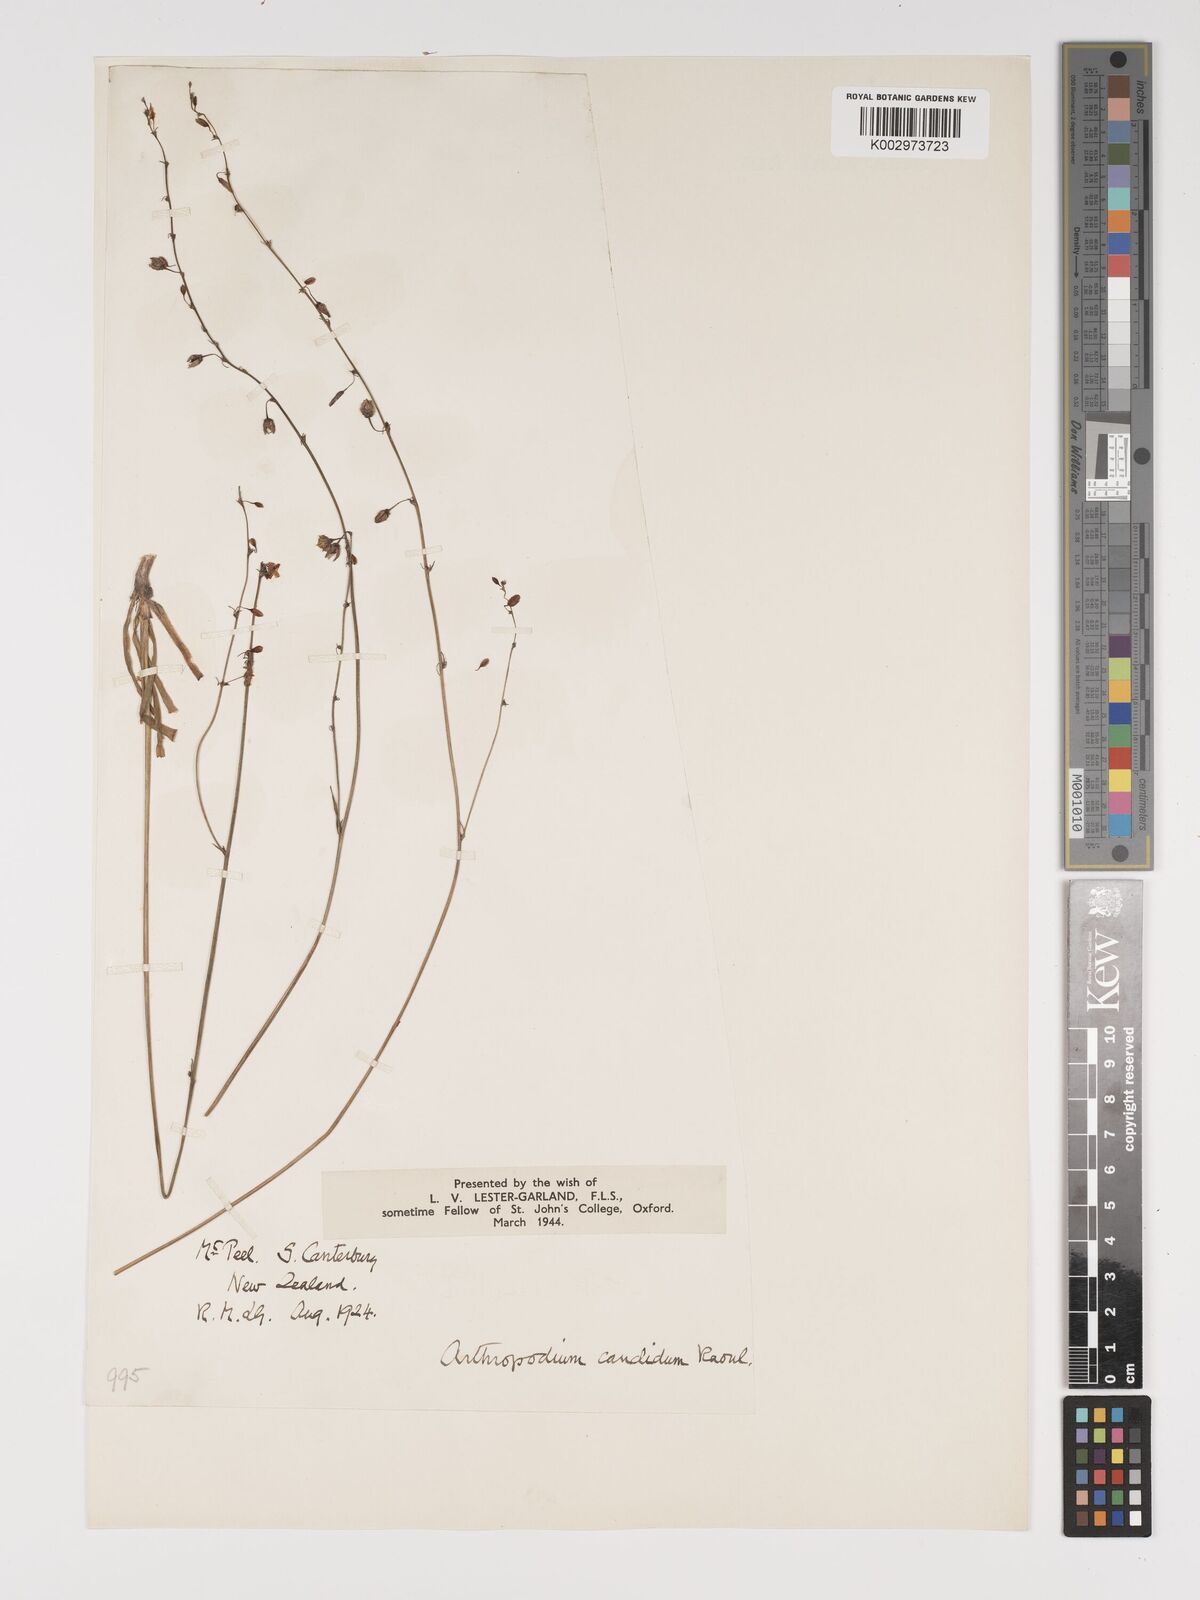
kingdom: Plantae
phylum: Tracheophyta
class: Liliopsida
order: Asparagales
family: Asparagaceae
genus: Arthropodium
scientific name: Arthropodium candidum
